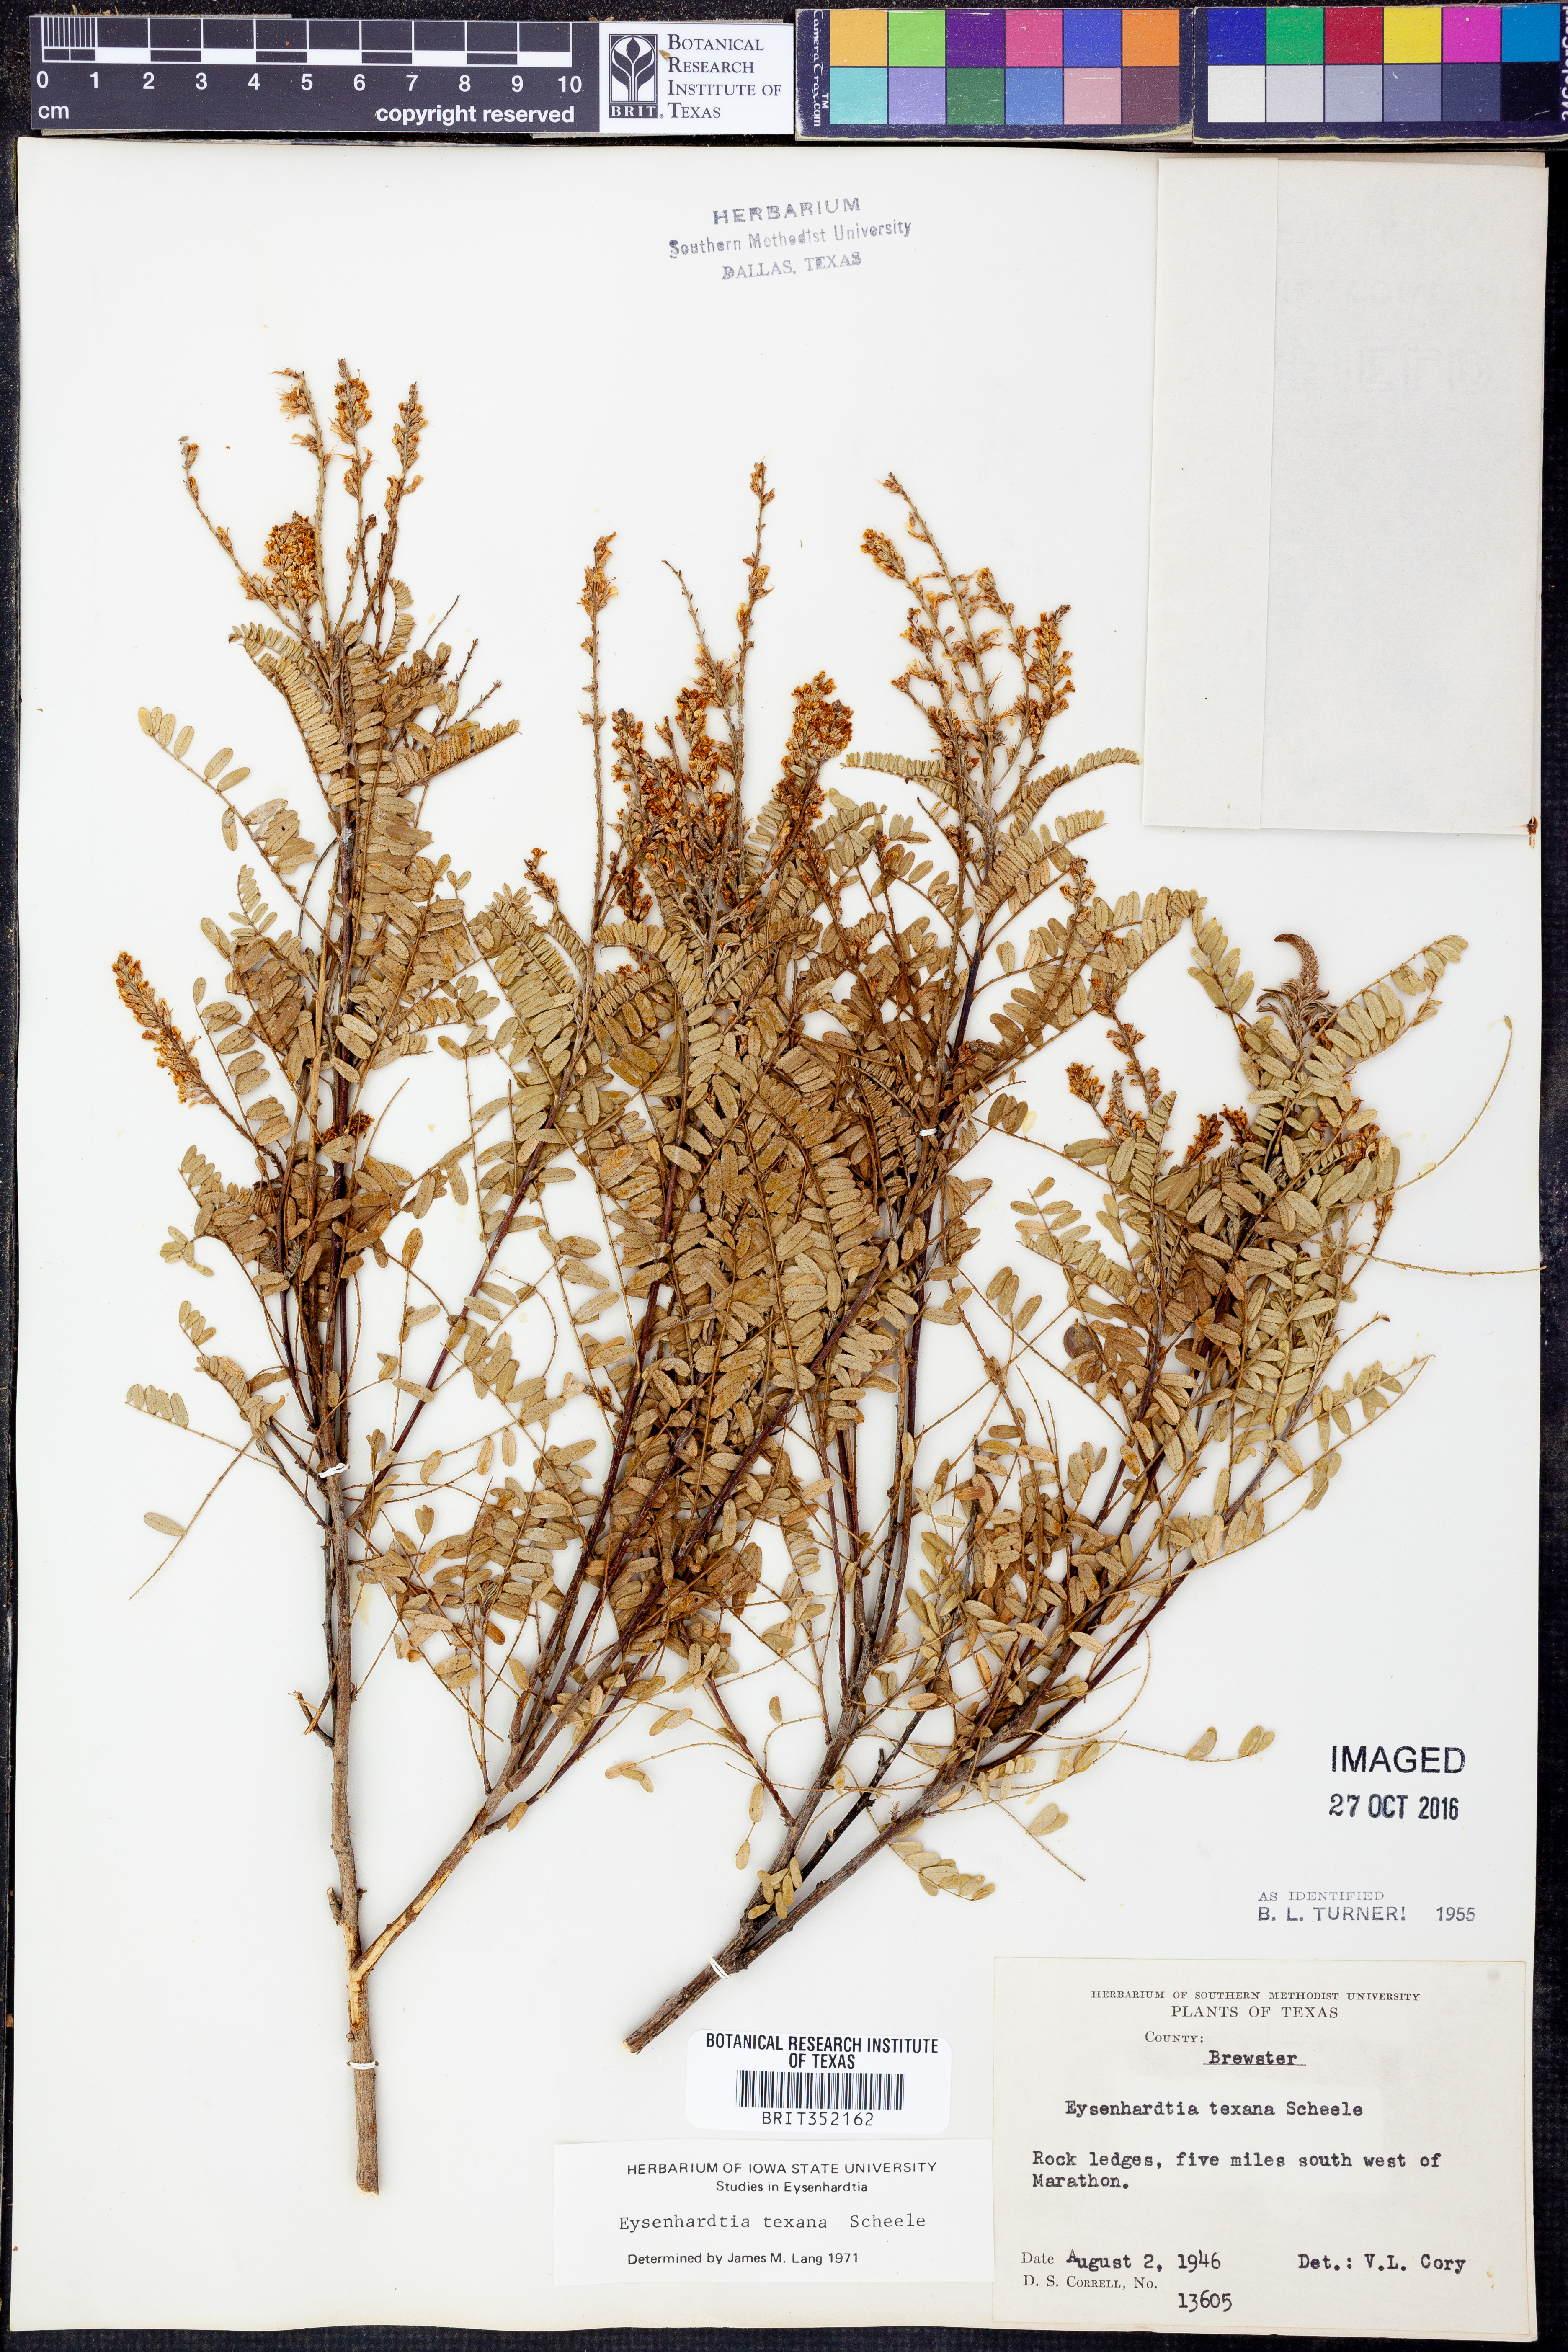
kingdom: Plantae
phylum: Tracheophyta
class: Magnoliopsida
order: Fabales
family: Fabaceae
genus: Eysenhardtia
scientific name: Eysenhardtia texana
